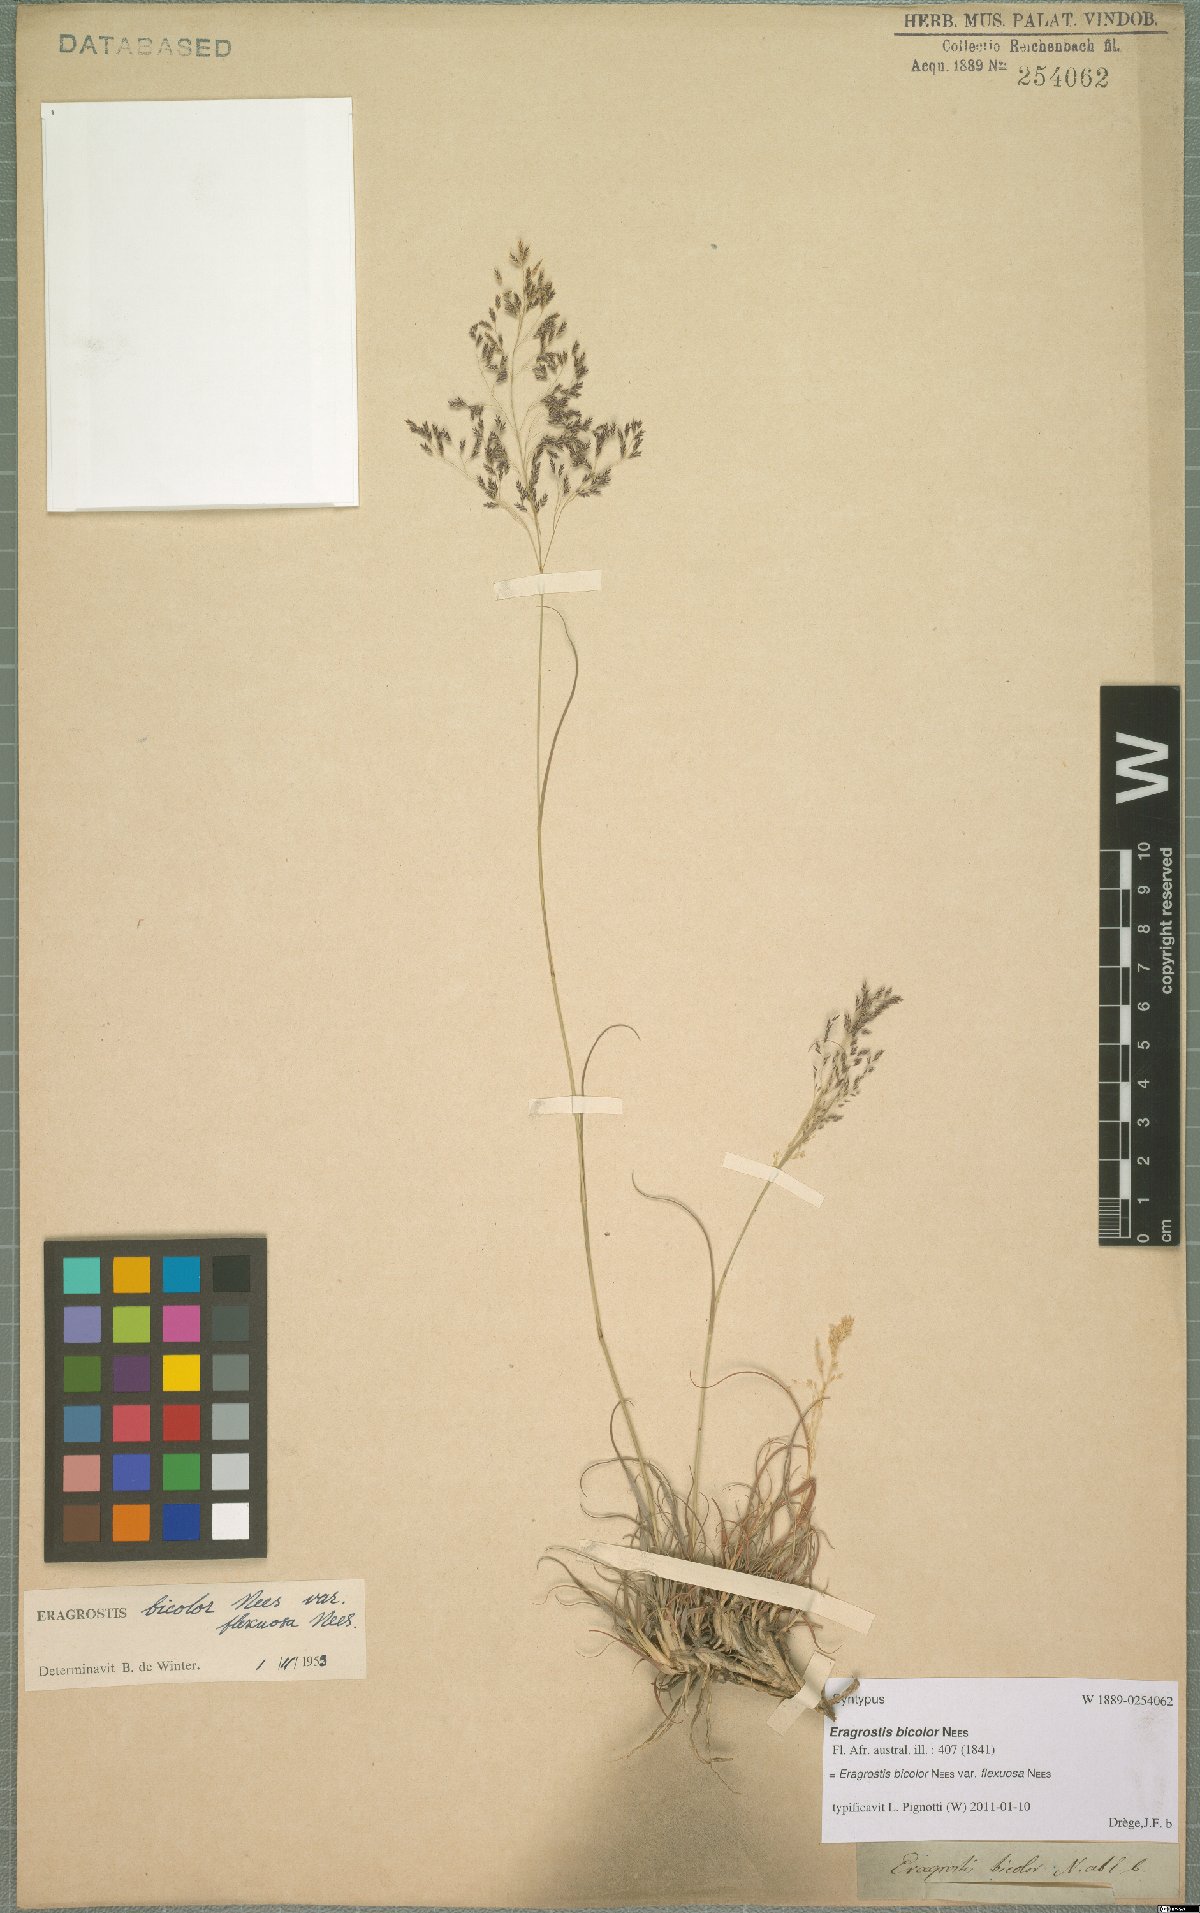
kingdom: Plantae
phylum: Tracheophyta
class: Liliopsida
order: Poales
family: Poaceae
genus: Eragrostis
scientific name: Eragrostis bicolor
